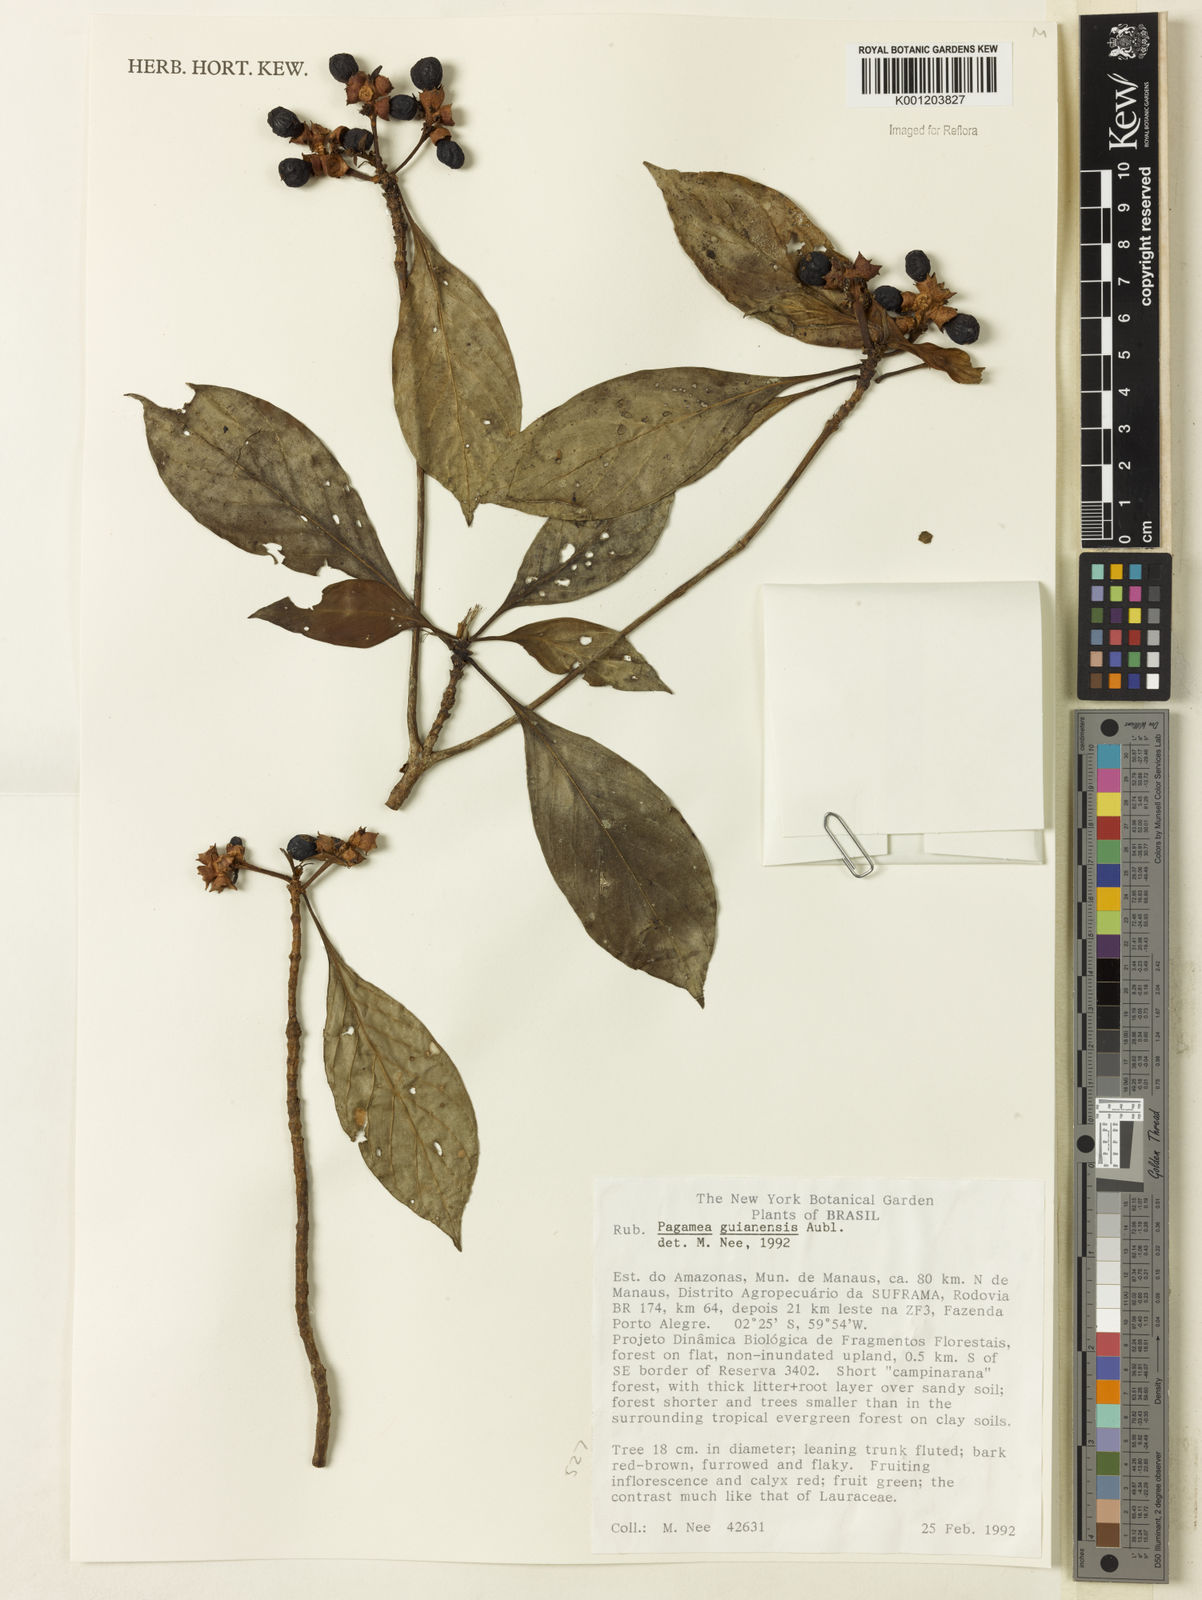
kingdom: Plantae
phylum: Tracheophyta
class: Magnoliopsida
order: Gentianales
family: Rubiaceae
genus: Pagamea
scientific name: Pagamea guianensis
